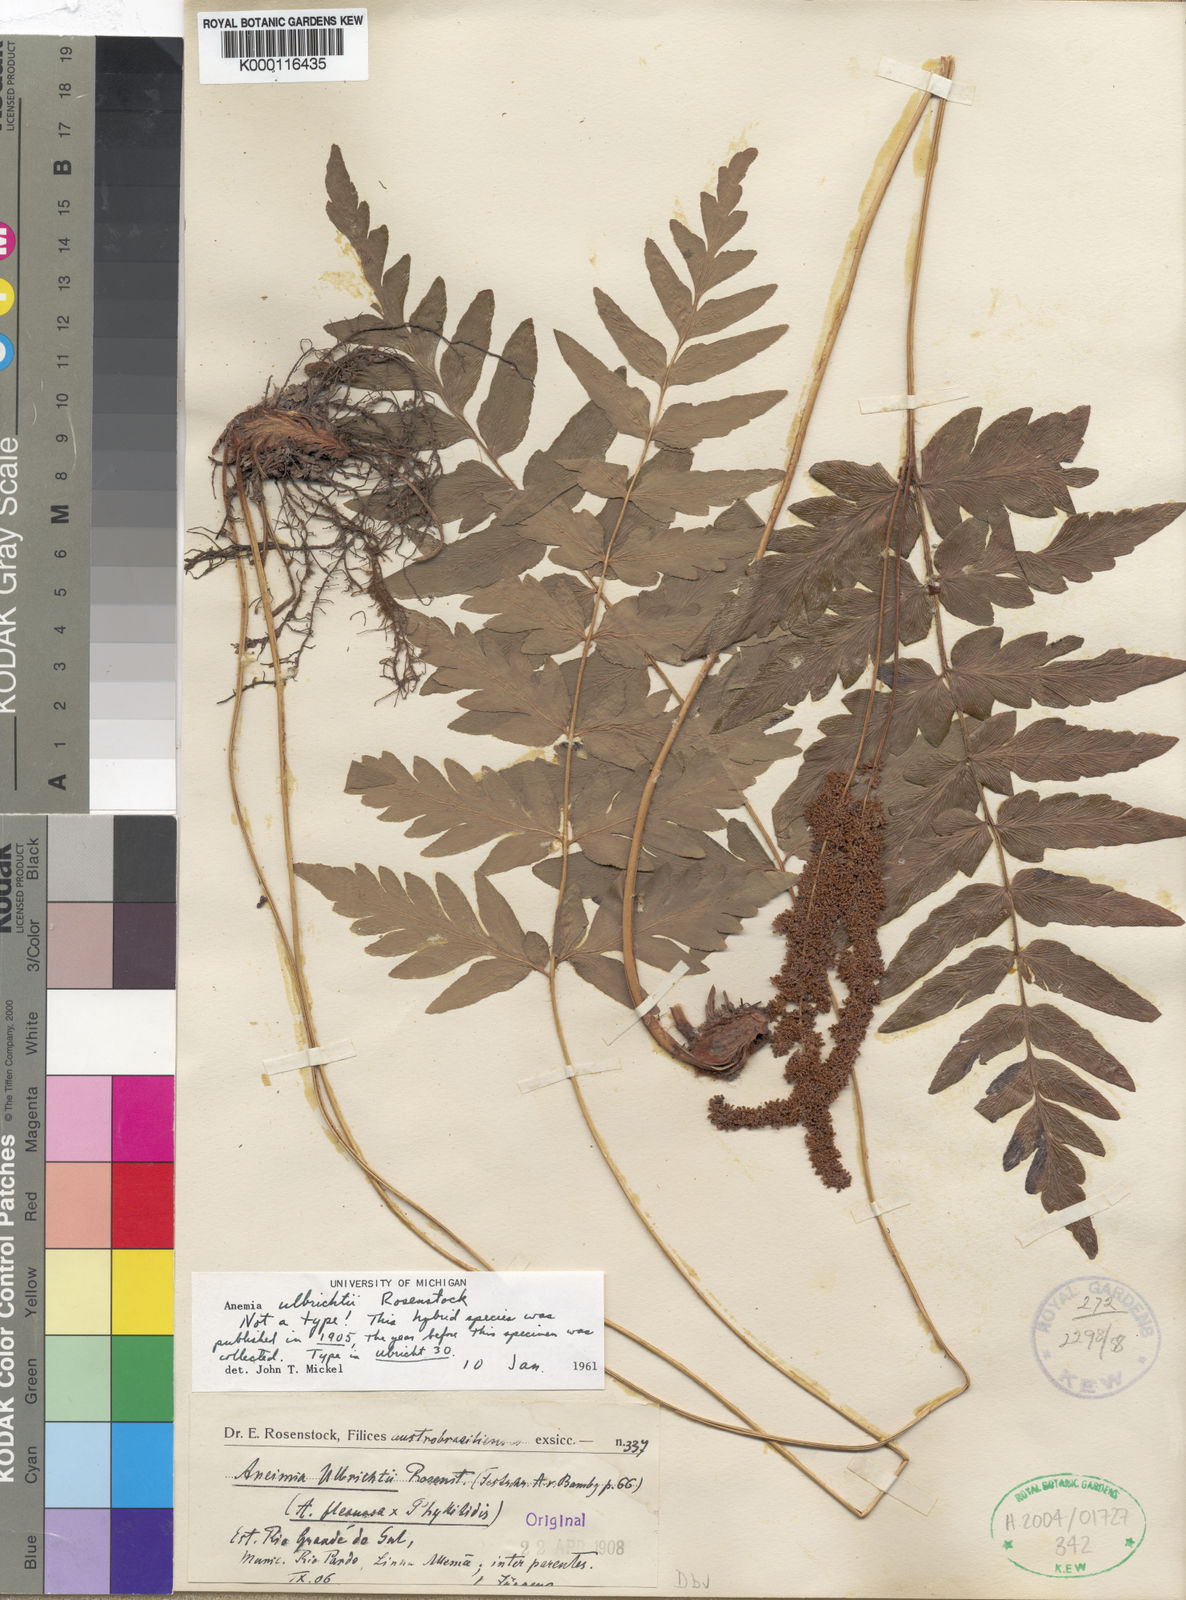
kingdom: Plantae
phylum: Tracheophyta
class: Polypodiopsida
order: Schizaeales
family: Anemiaceae
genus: Anemia
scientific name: Anemia ulbrichtii
